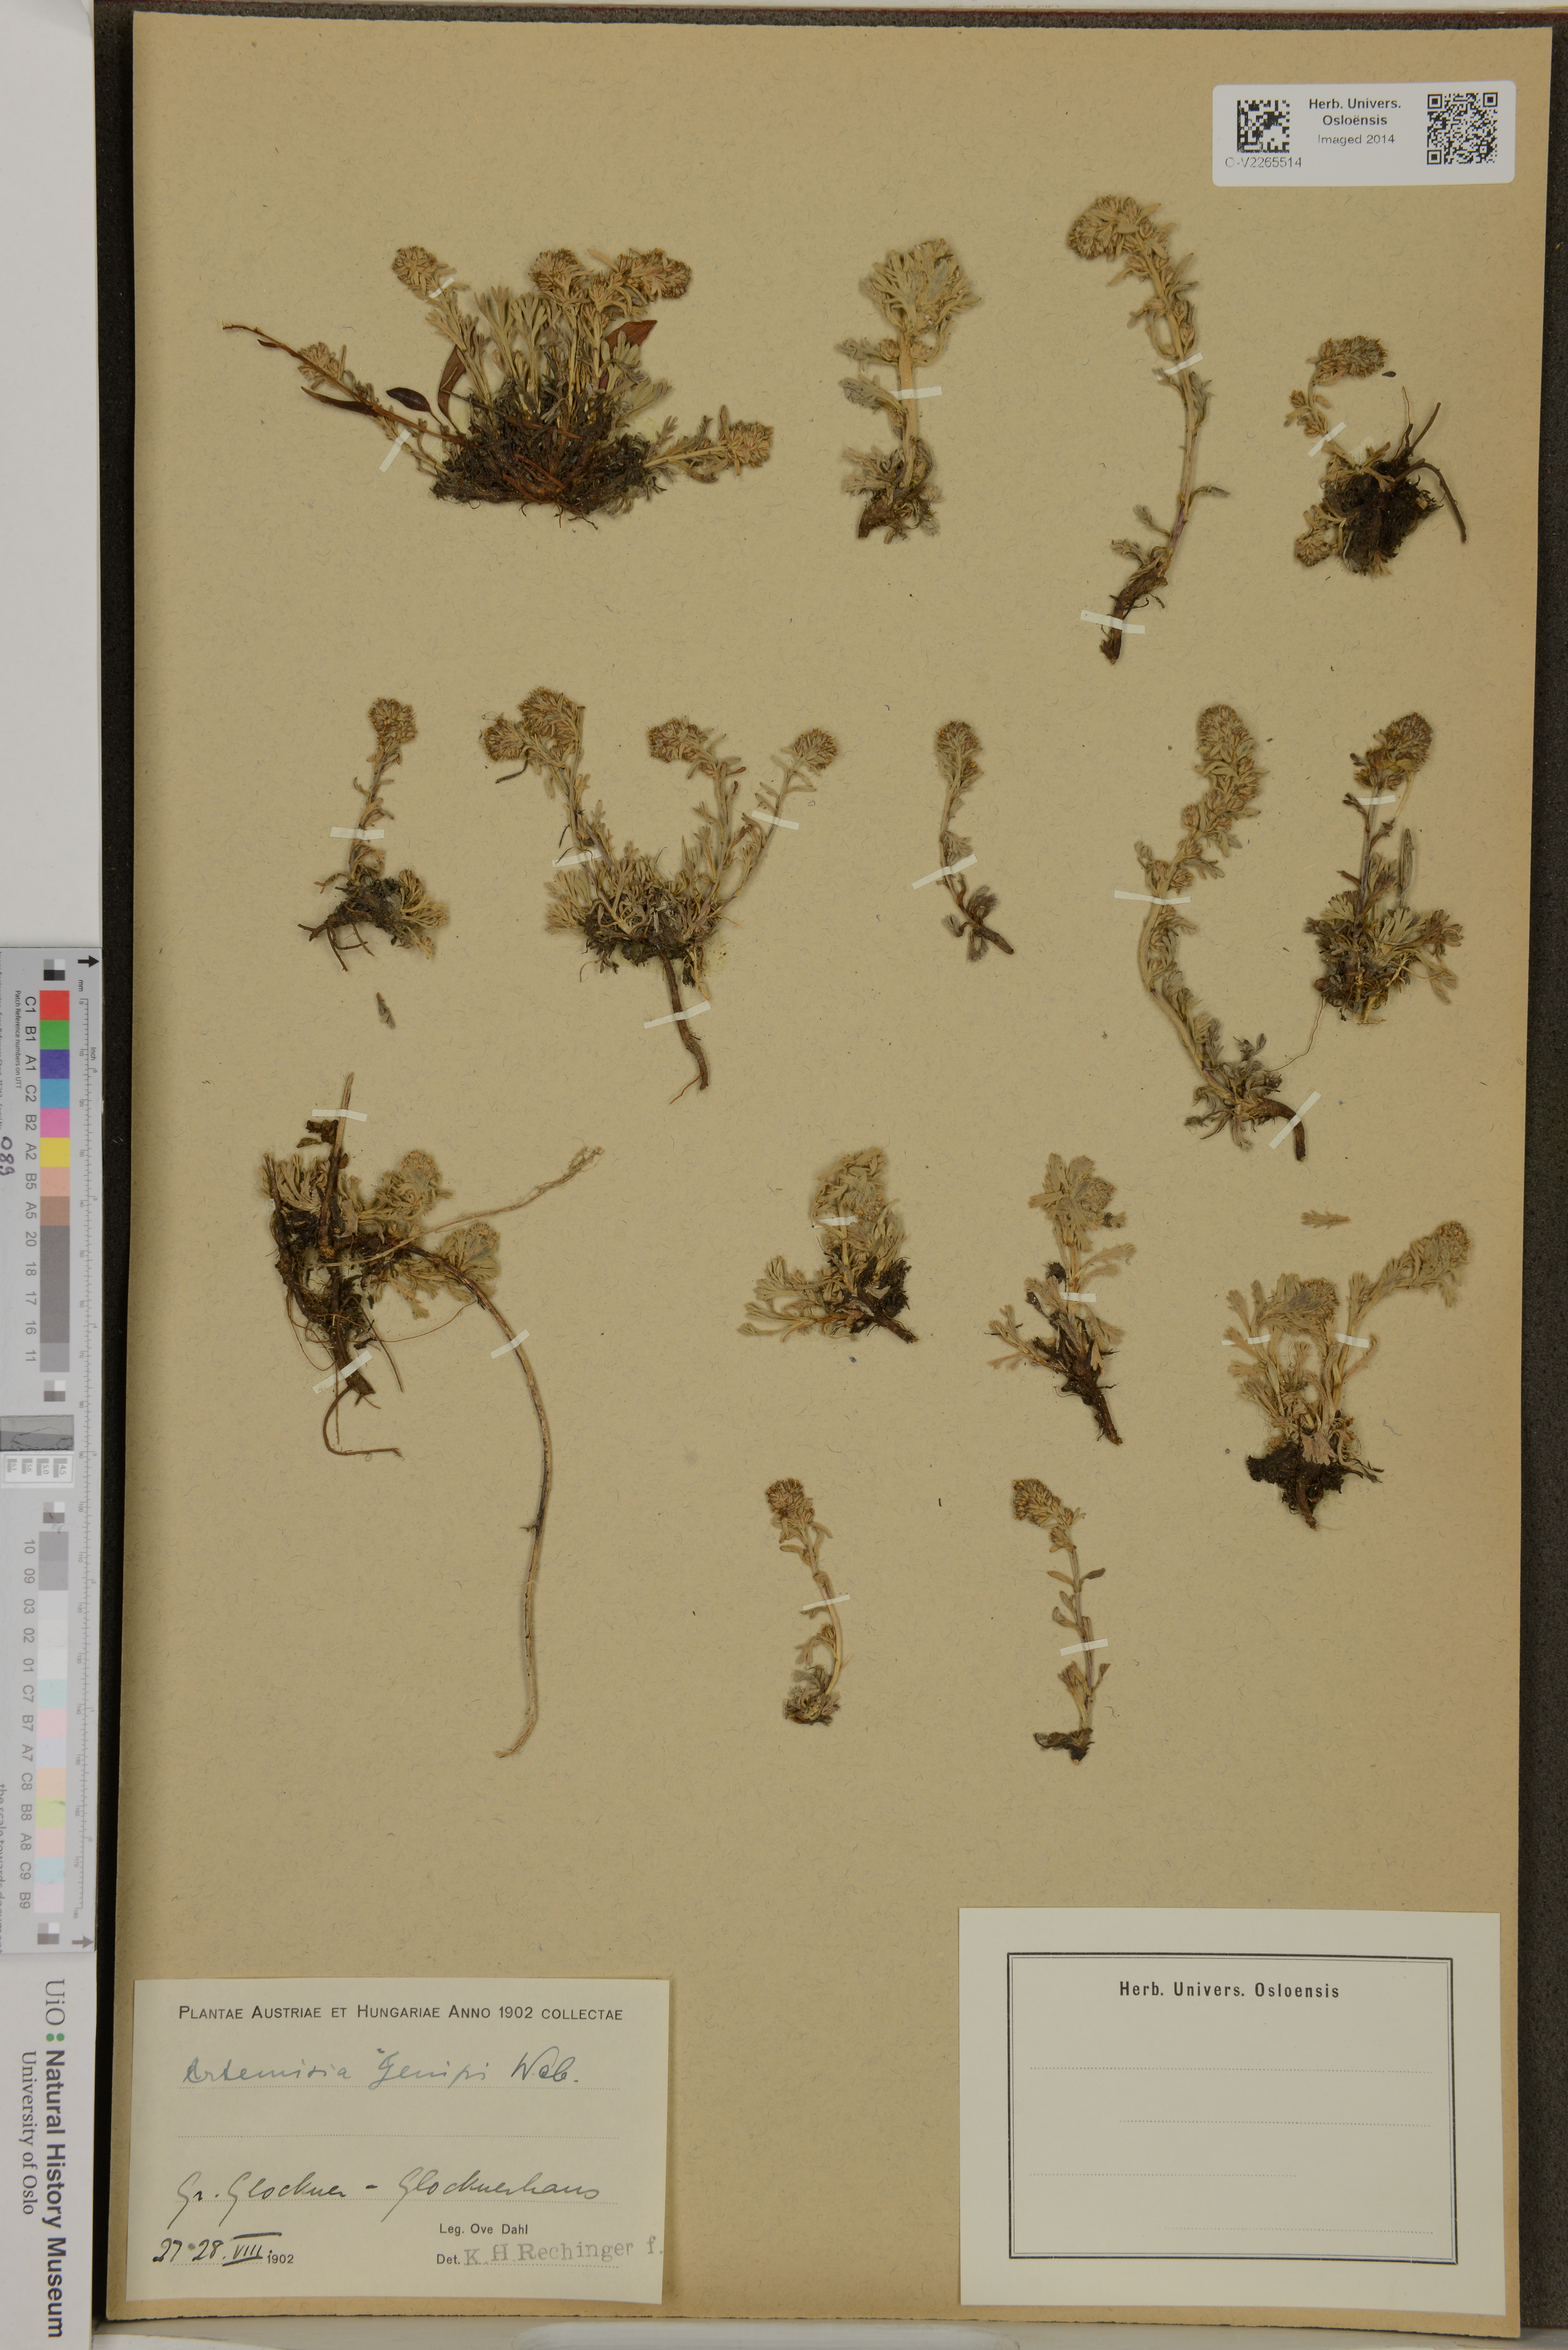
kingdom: Plantae
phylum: Tracheophyta
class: Magnoliopsida
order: Asterales
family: Asteraceae
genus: Artemisia
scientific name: Artemisia genipi
